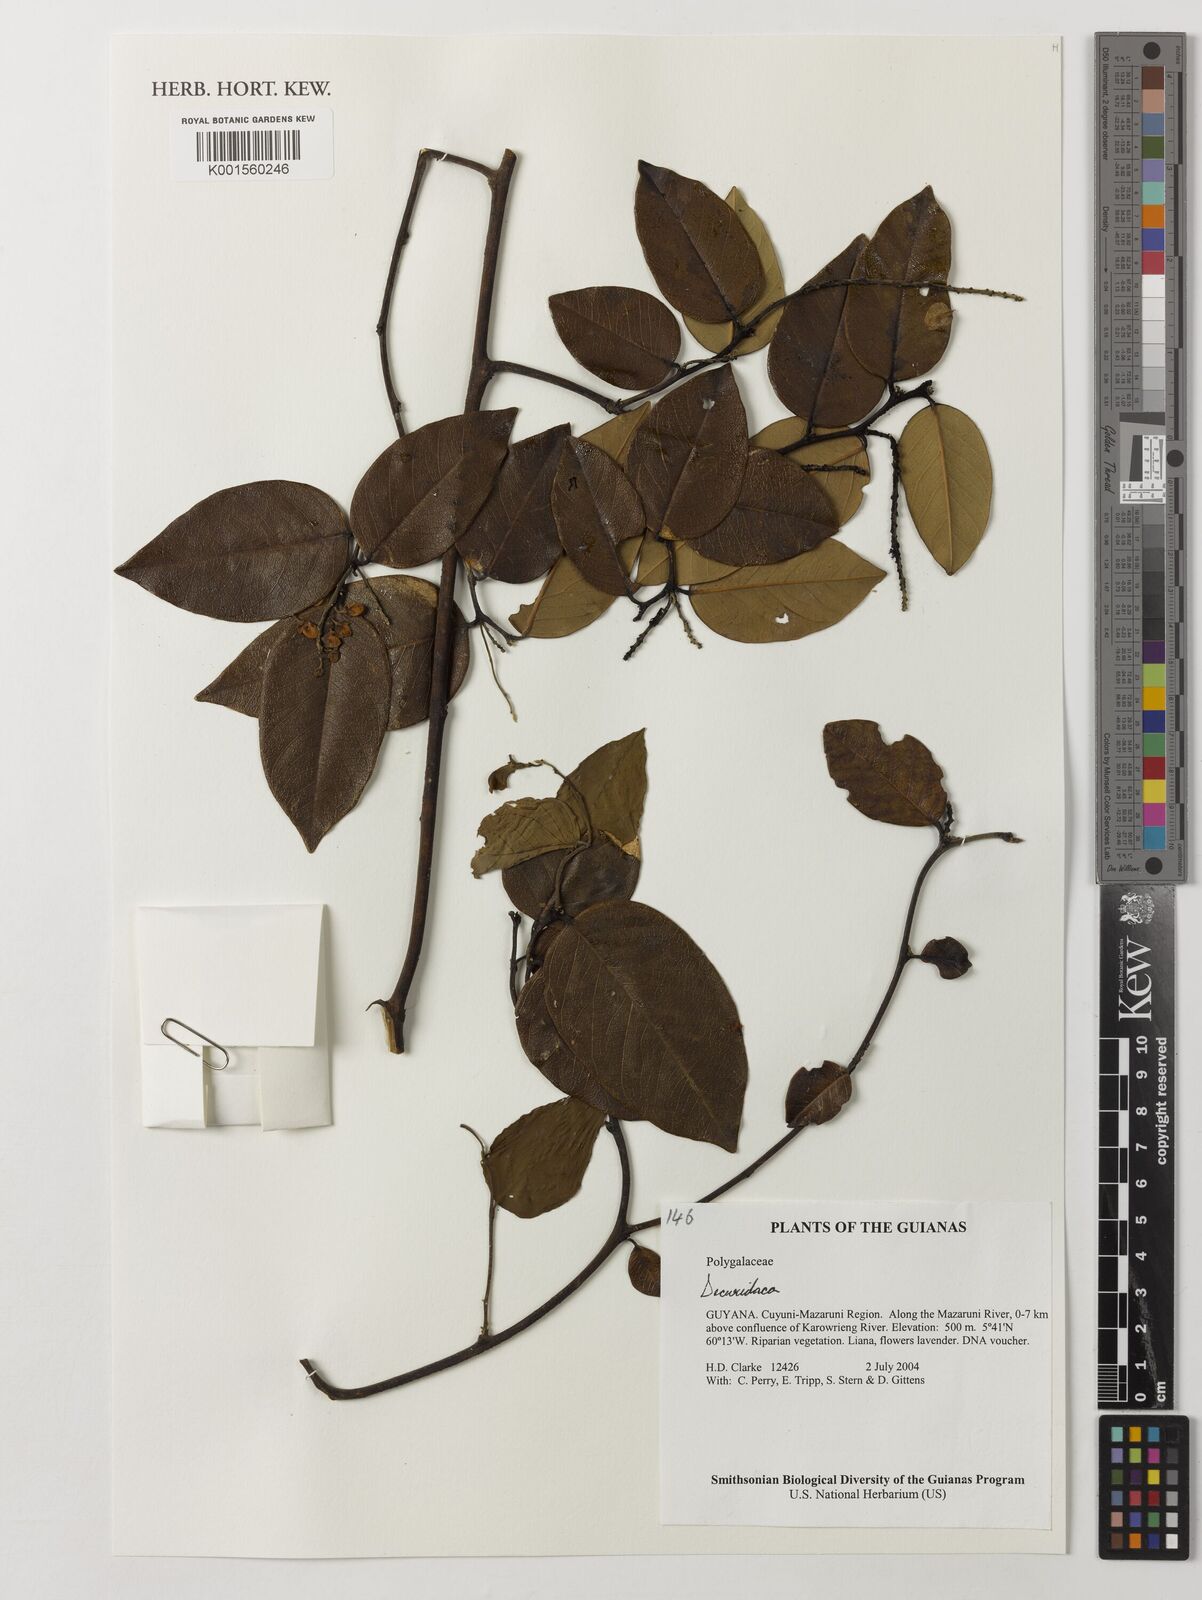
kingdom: Plantae
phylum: Tracheophyta
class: Magnoliopsida
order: Fabales
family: Polygalaceae
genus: Securidaca
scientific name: Securidaca
